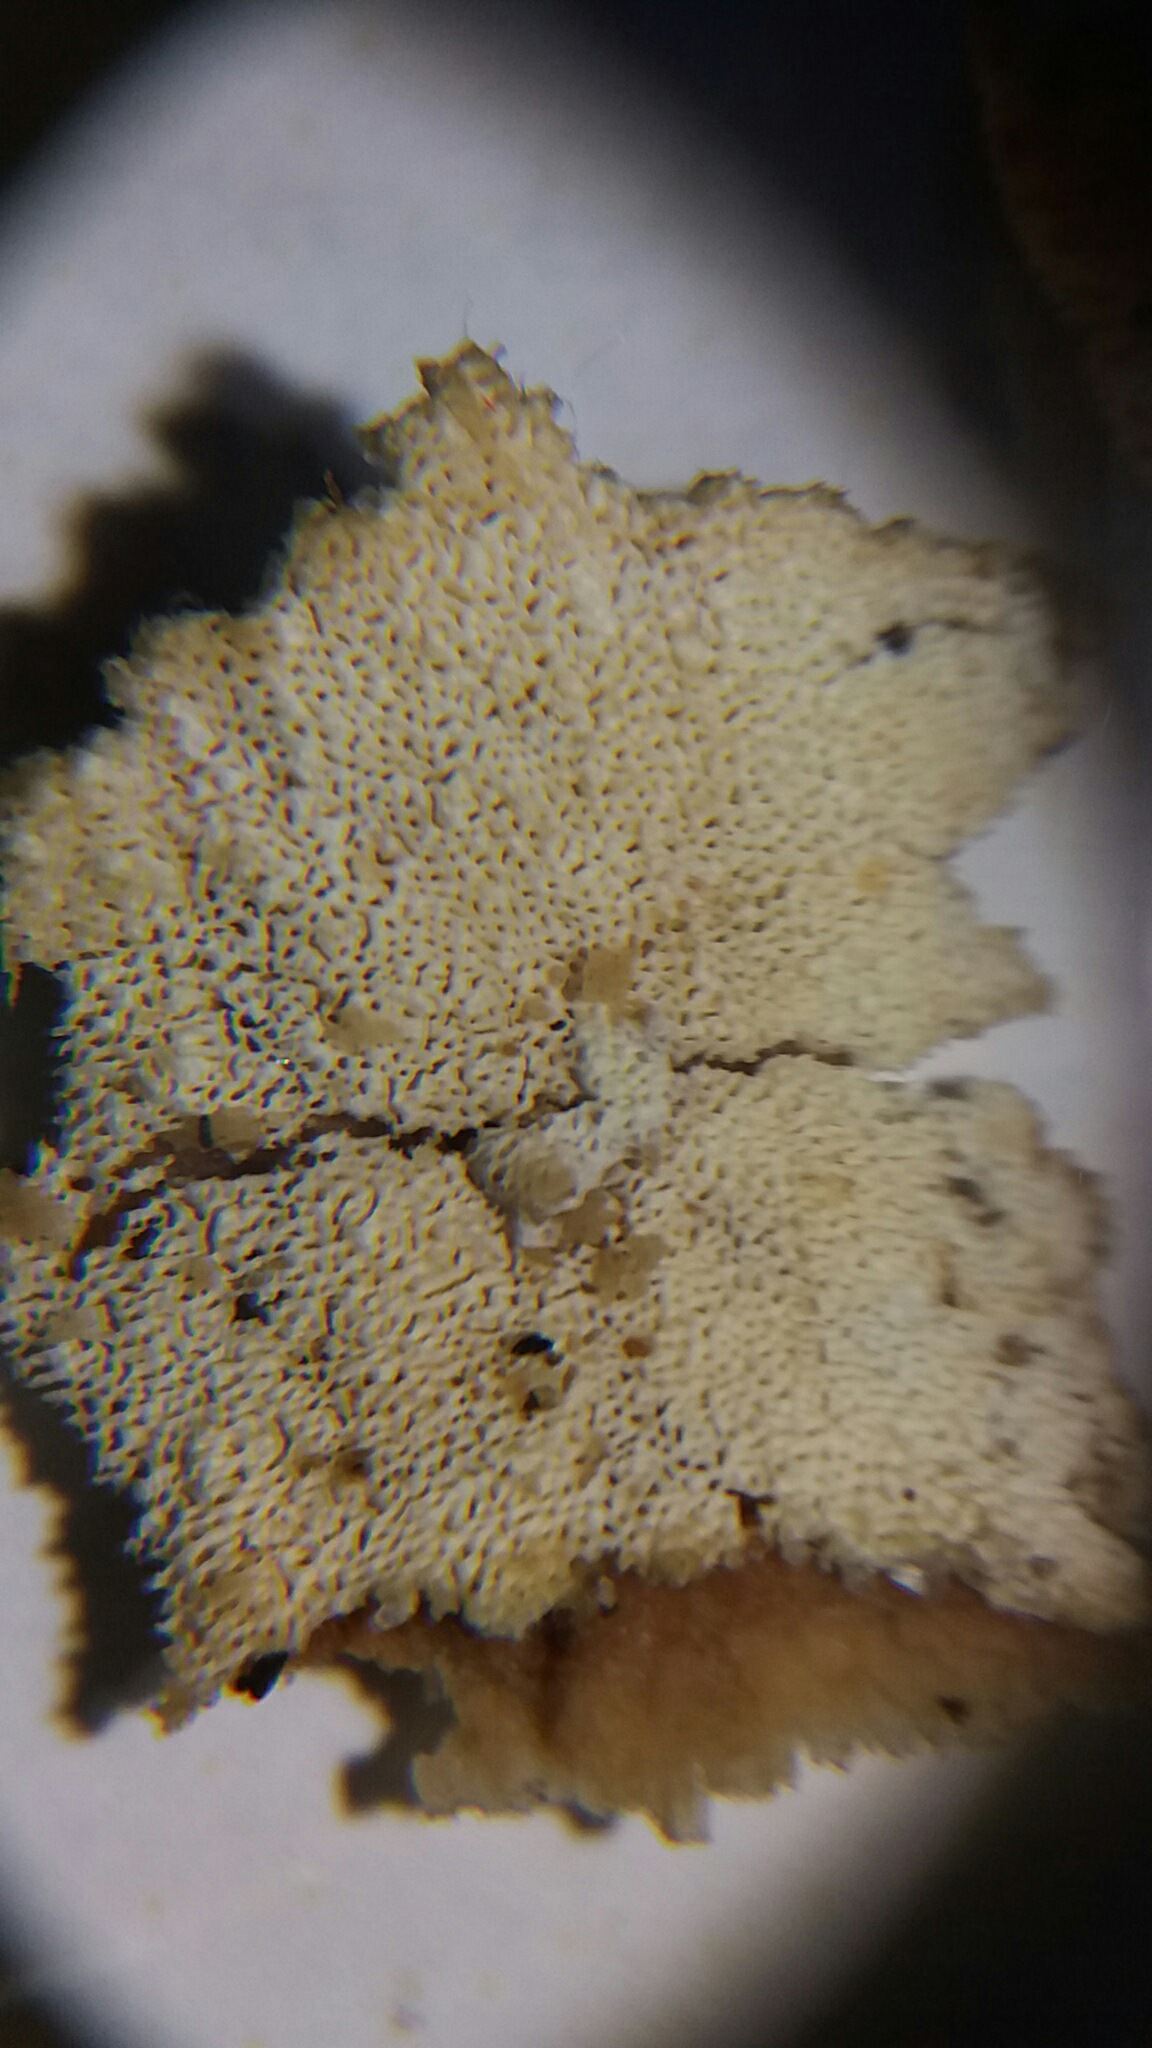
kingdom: Fungi
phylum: Basidiomycota
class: Agaricomycetes
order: Hymenochaetales
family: Schizoporaceae
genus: Xylodon
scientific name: Xylodon
